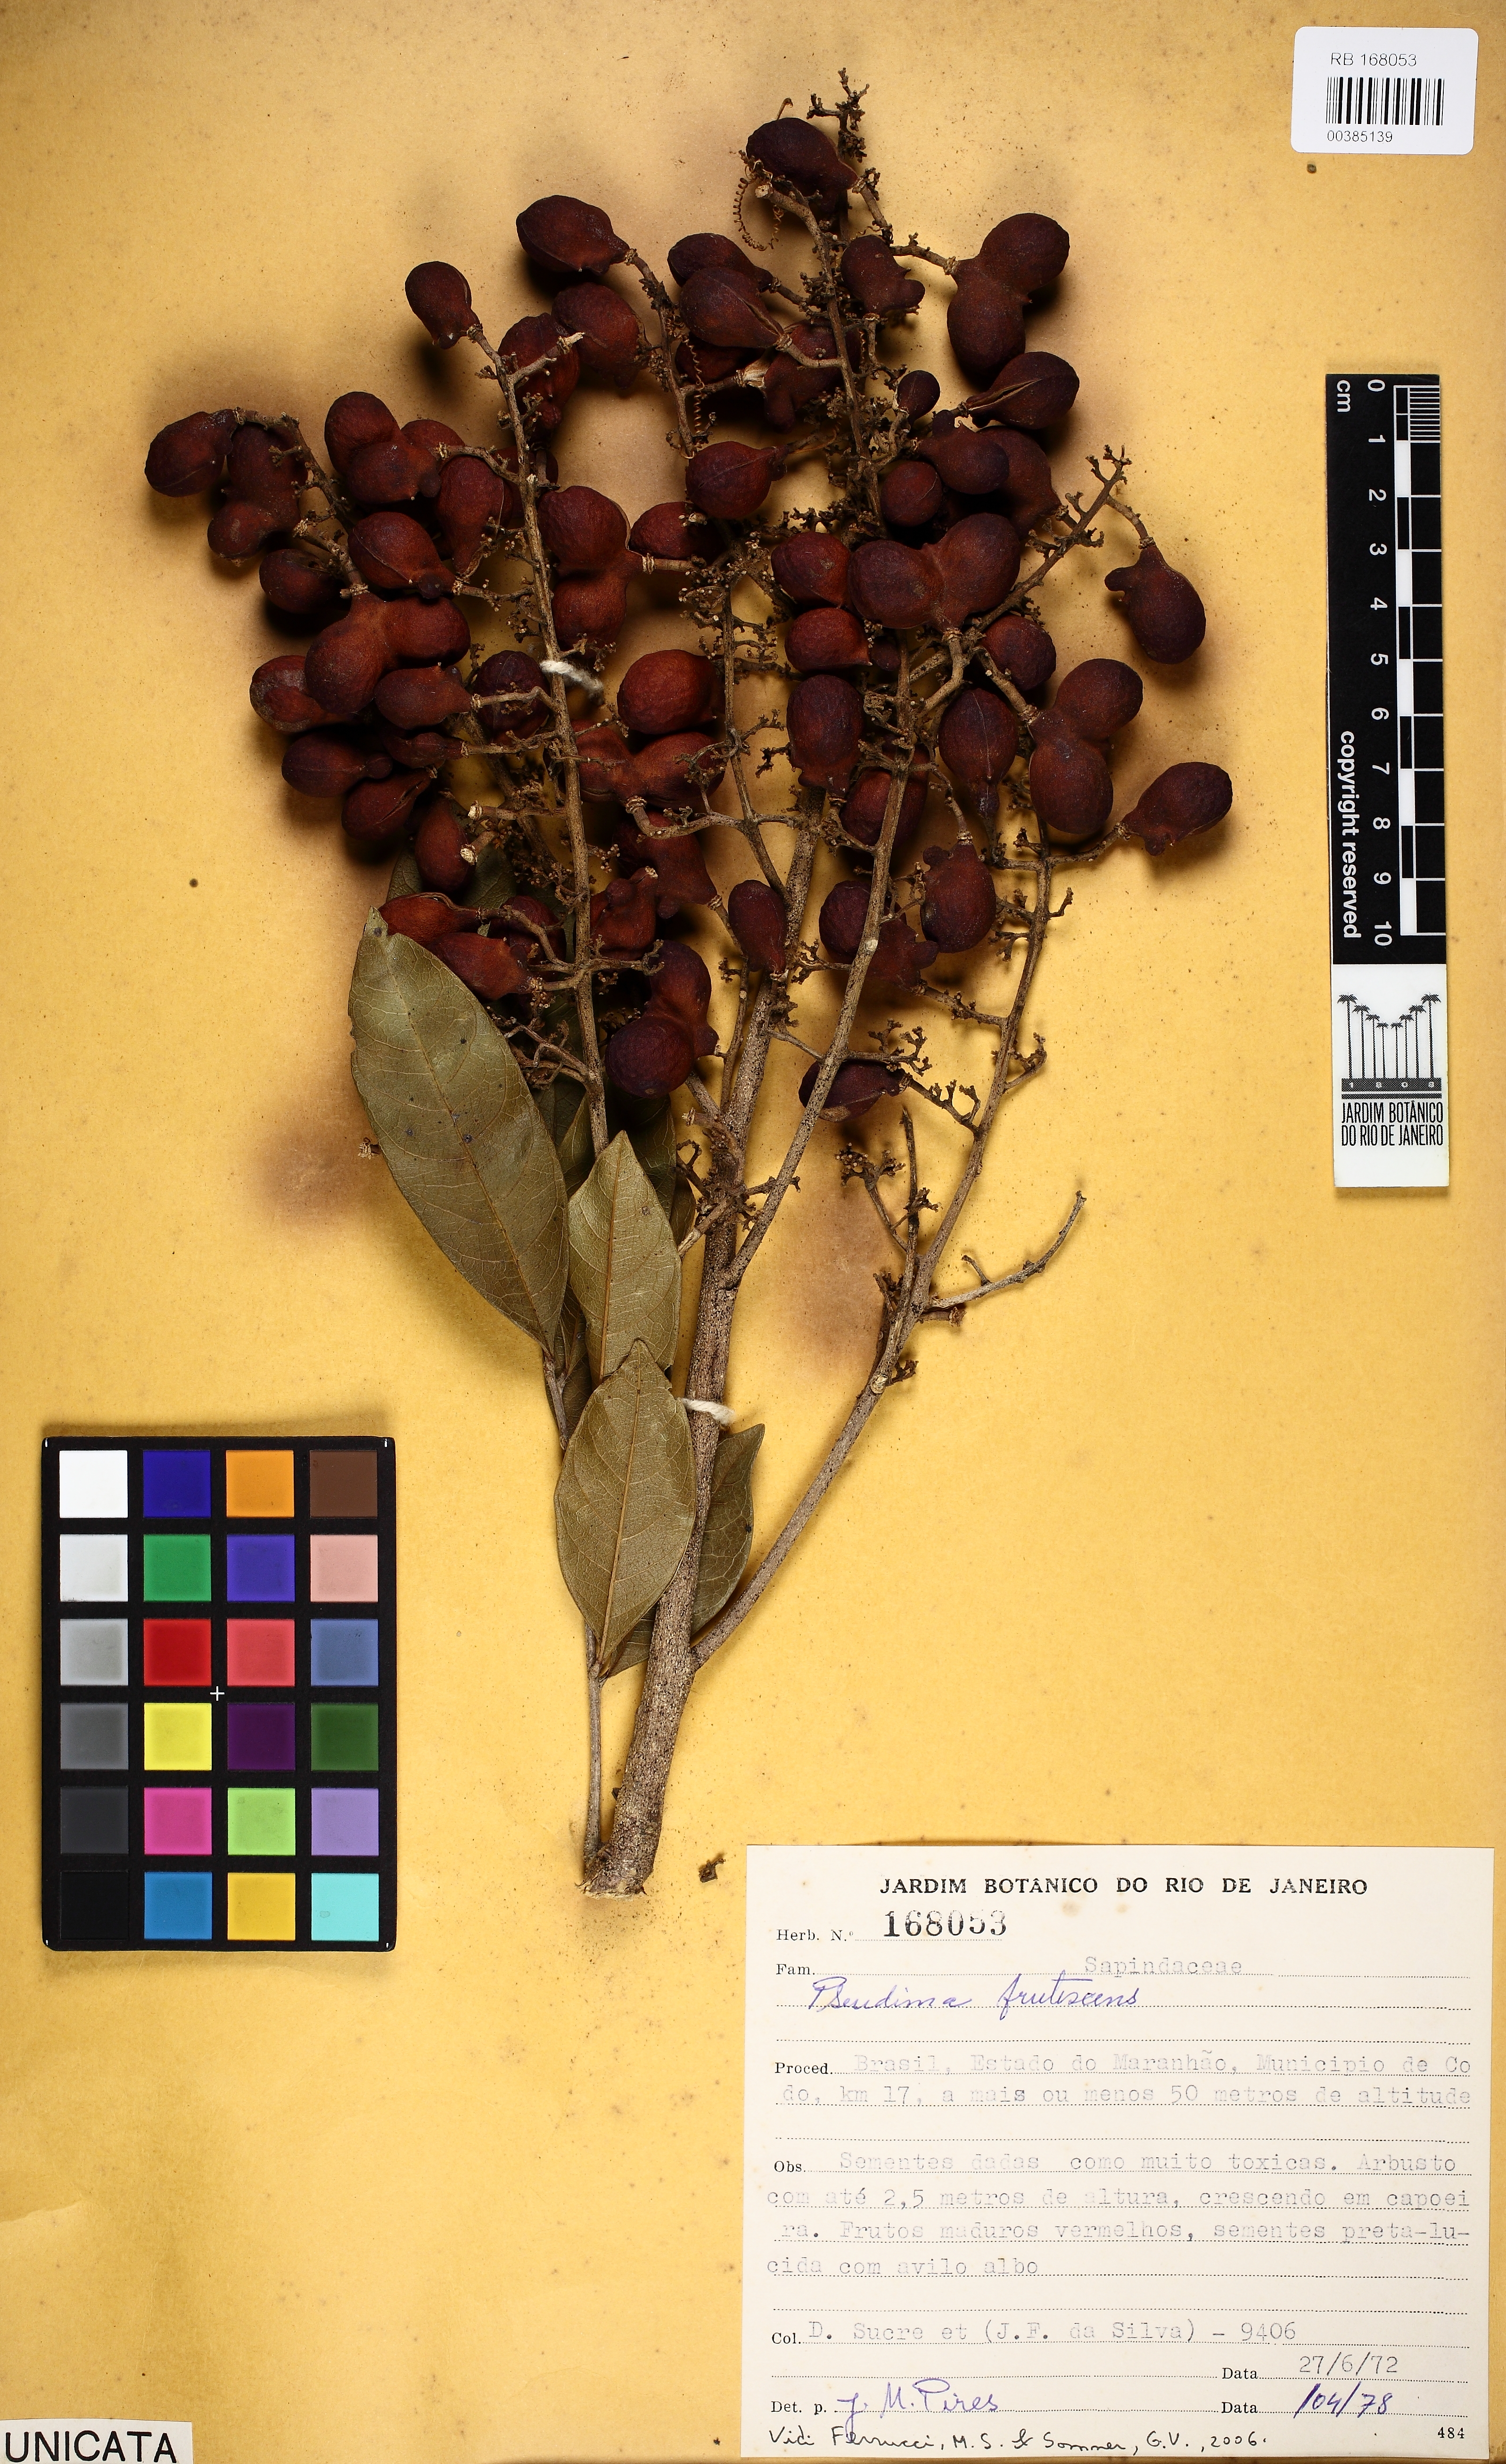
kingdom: Plantae
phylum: Tracheophyta
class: Magnoliopsida
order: Sapindales
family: Sapindaceae
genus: Pseudima
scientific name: Pseudima frutescens
